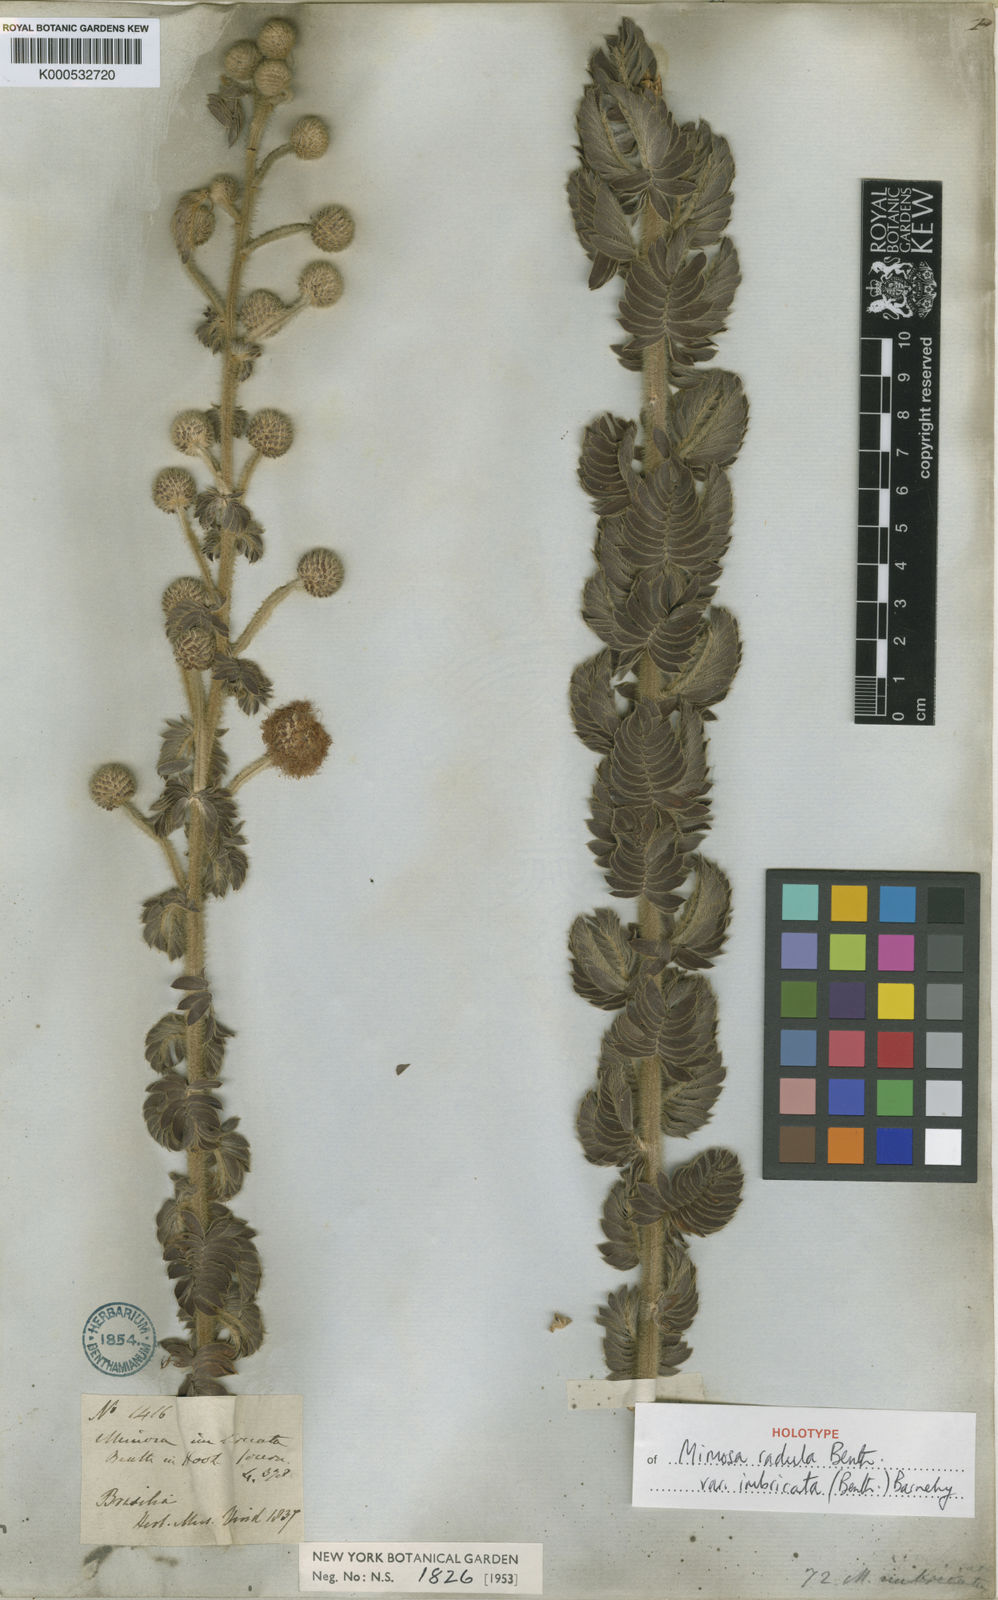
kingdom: Plantae
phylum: Tracheophyta
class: Magnoliopsida
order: Fabales
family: Fabaceae
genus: Mimosa
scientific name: Mimosa radula
